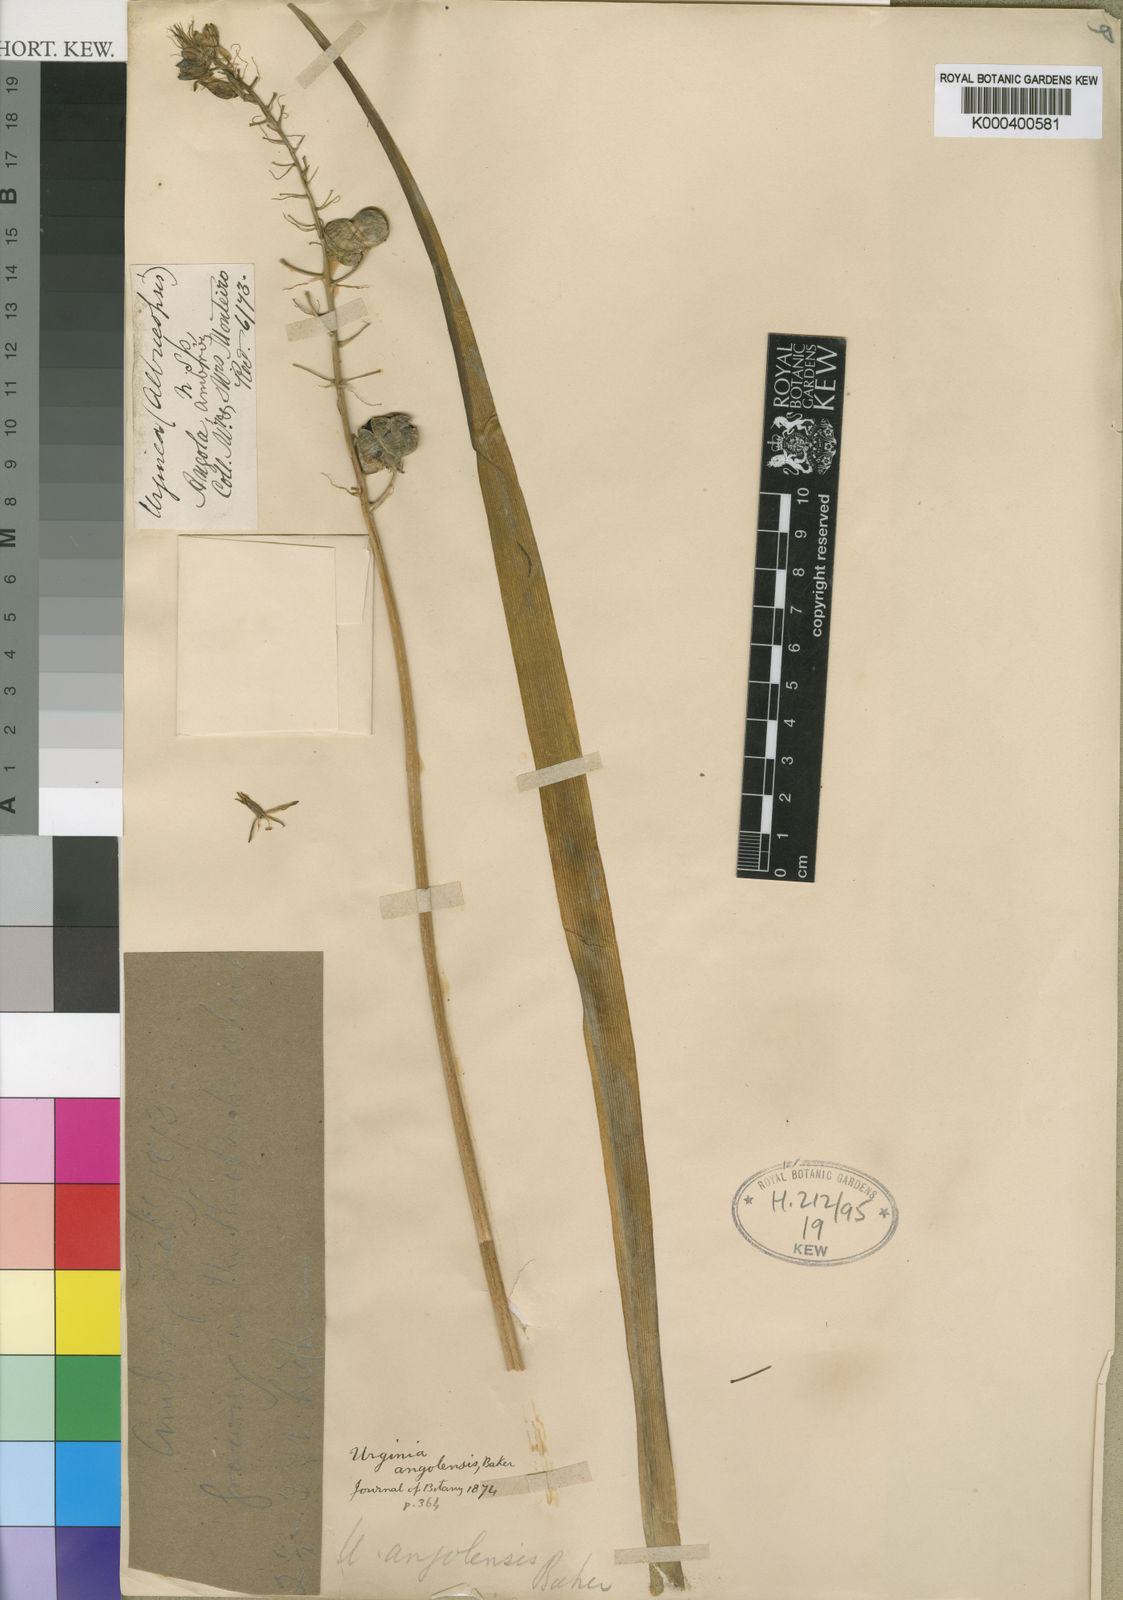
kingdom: Plantae
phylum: Tracheophyta
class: Liliopsida
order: Asparagales
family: Asparagaceae
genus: Albuca
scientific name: Albuca pulchra
